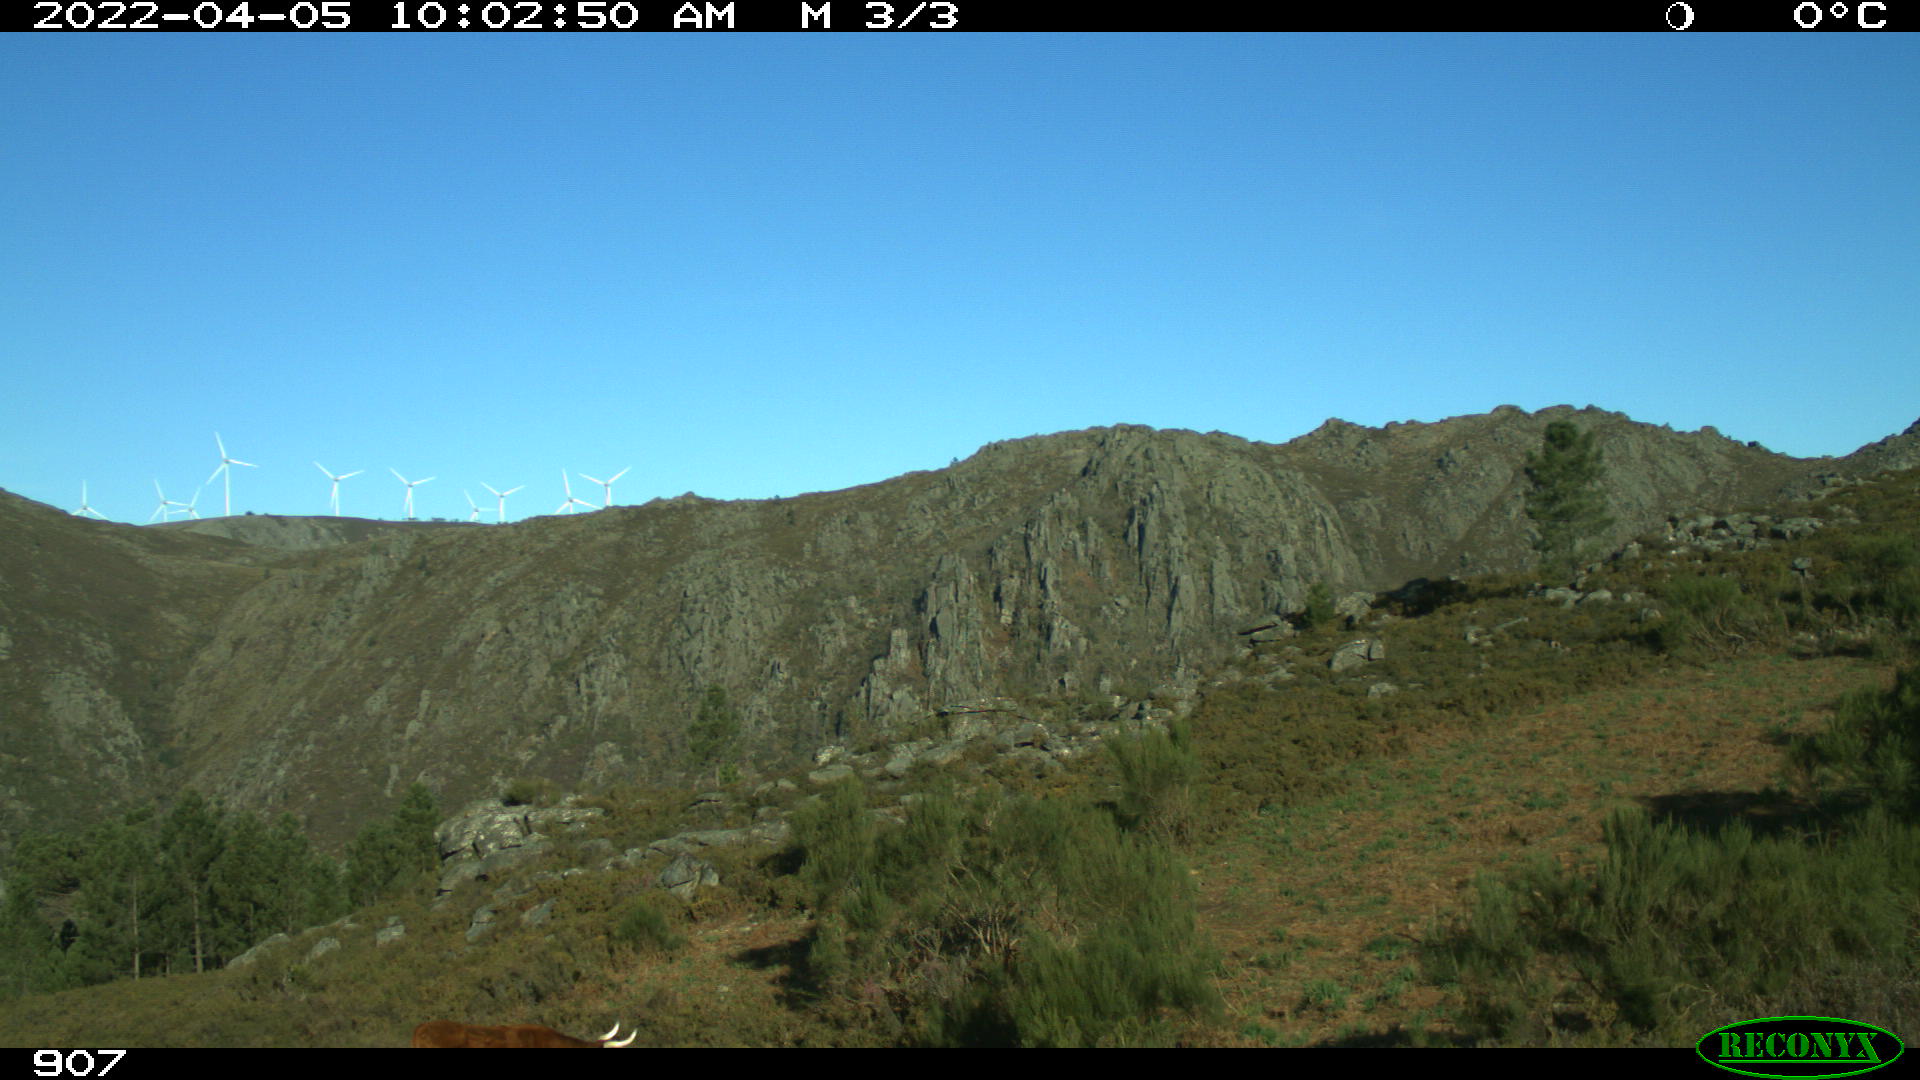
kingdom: Animalia
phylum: Chordata
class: Mammalia
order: Artiodactyla
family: Bovidae
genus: Bos
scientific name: Bos taurus
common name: Domesticated cattle
